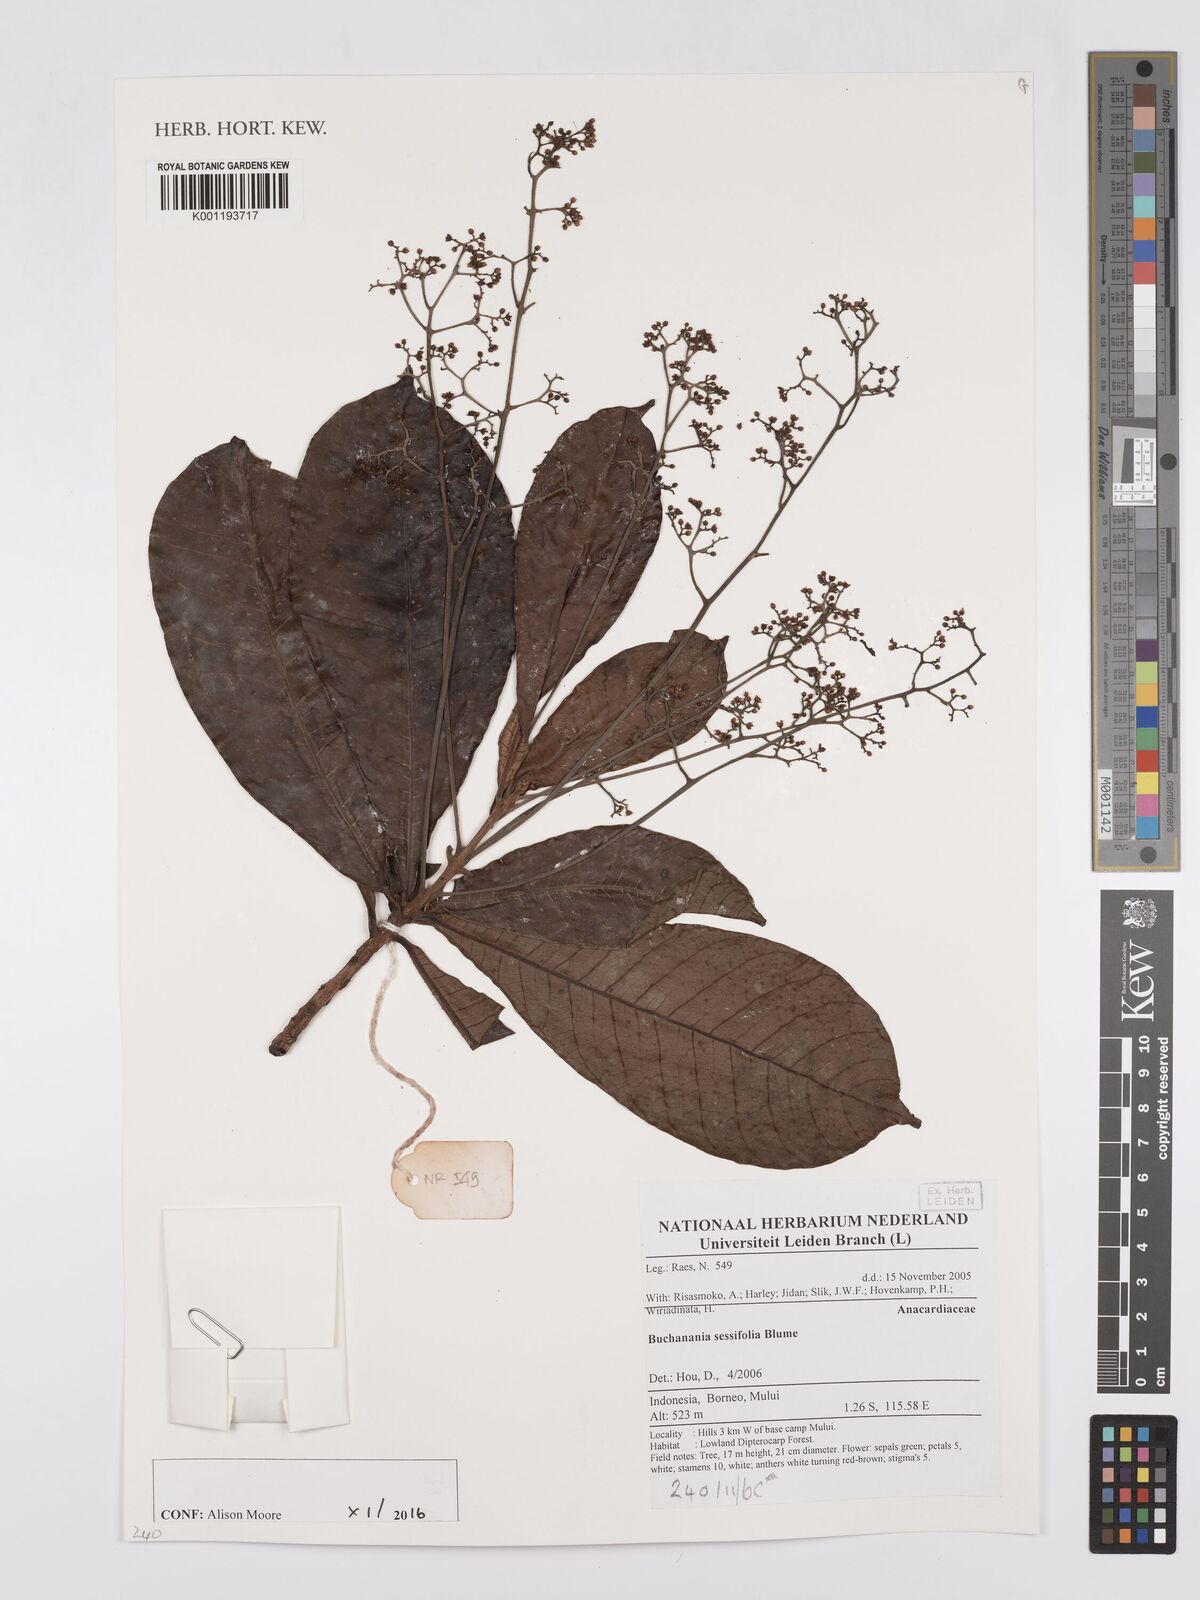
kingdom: Plantae
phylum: Tracheophyta
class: Magnoliopsida
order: Sapindales
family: Anacardiaceae
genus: Buchanania
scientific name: Buchanania sessifolia
